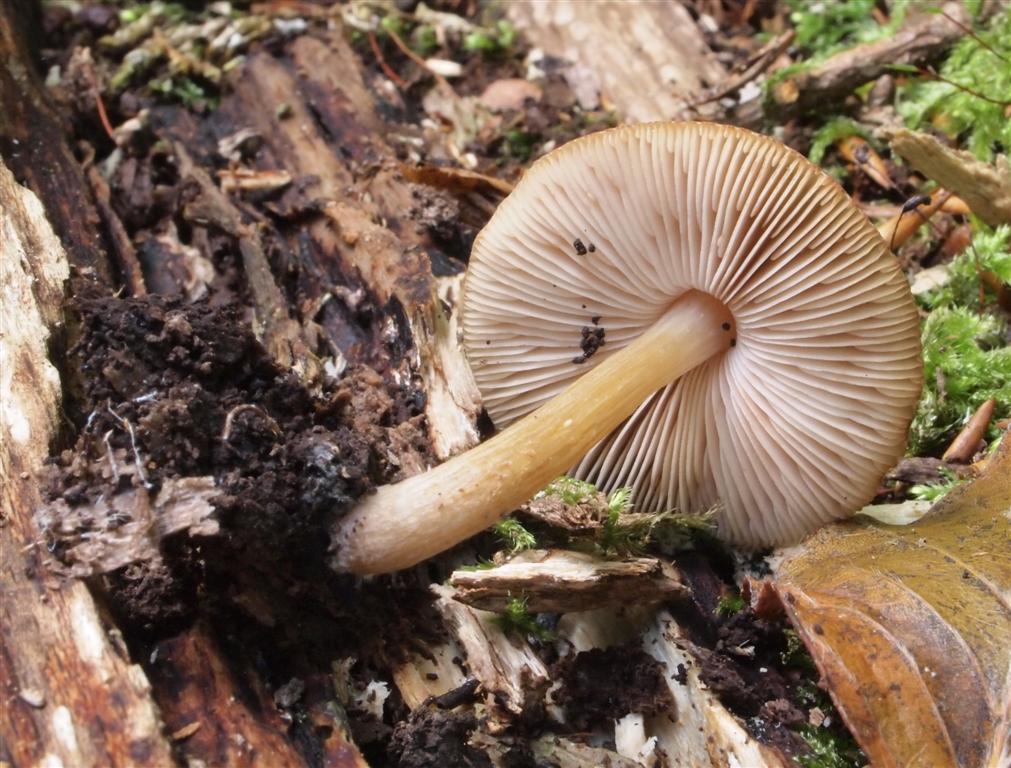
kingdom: Fungi
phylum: Basidiomycota
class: Agaricomycetes
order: Agaricales
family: Pluteaceae
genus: Pluteus
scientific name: Pluteus romellii
